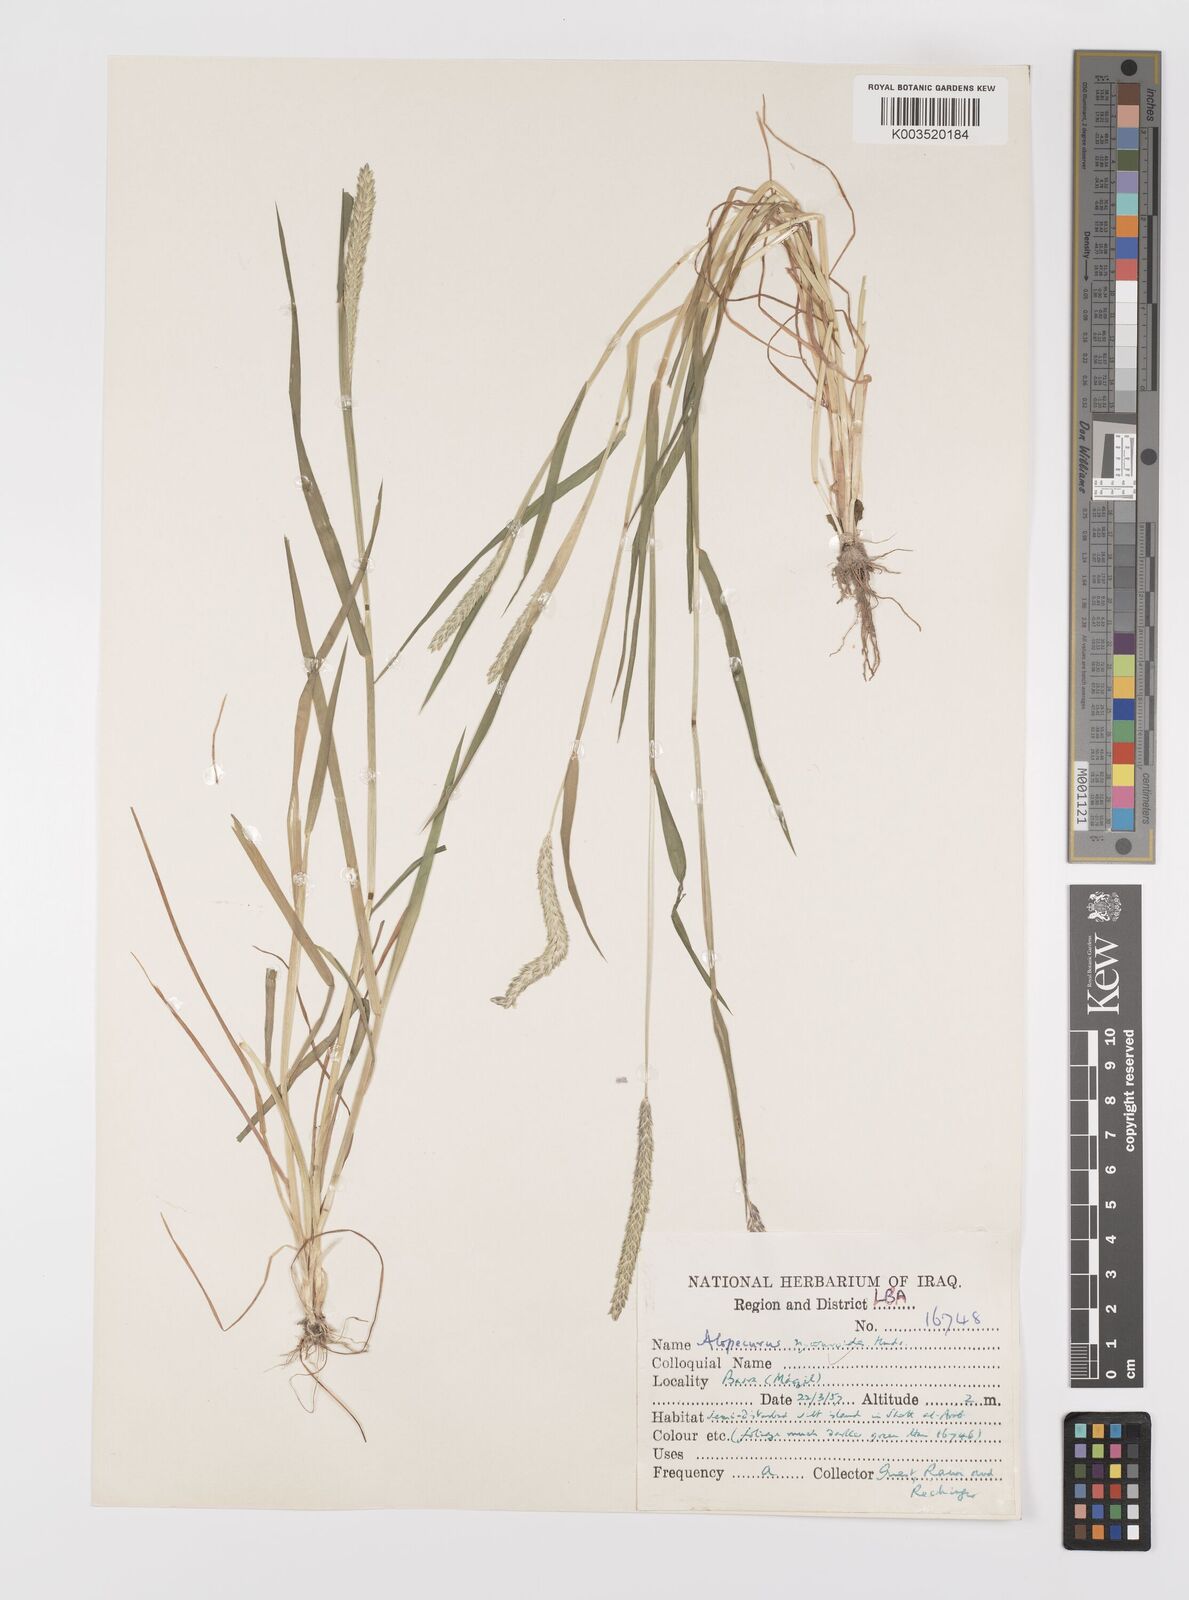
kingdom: Plantae
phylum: Tracheophyta
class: Liliopsida
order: Poales
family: Poaceae
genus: Alopecurus
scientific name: Alopecurus myosuroides
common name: Black-grass
